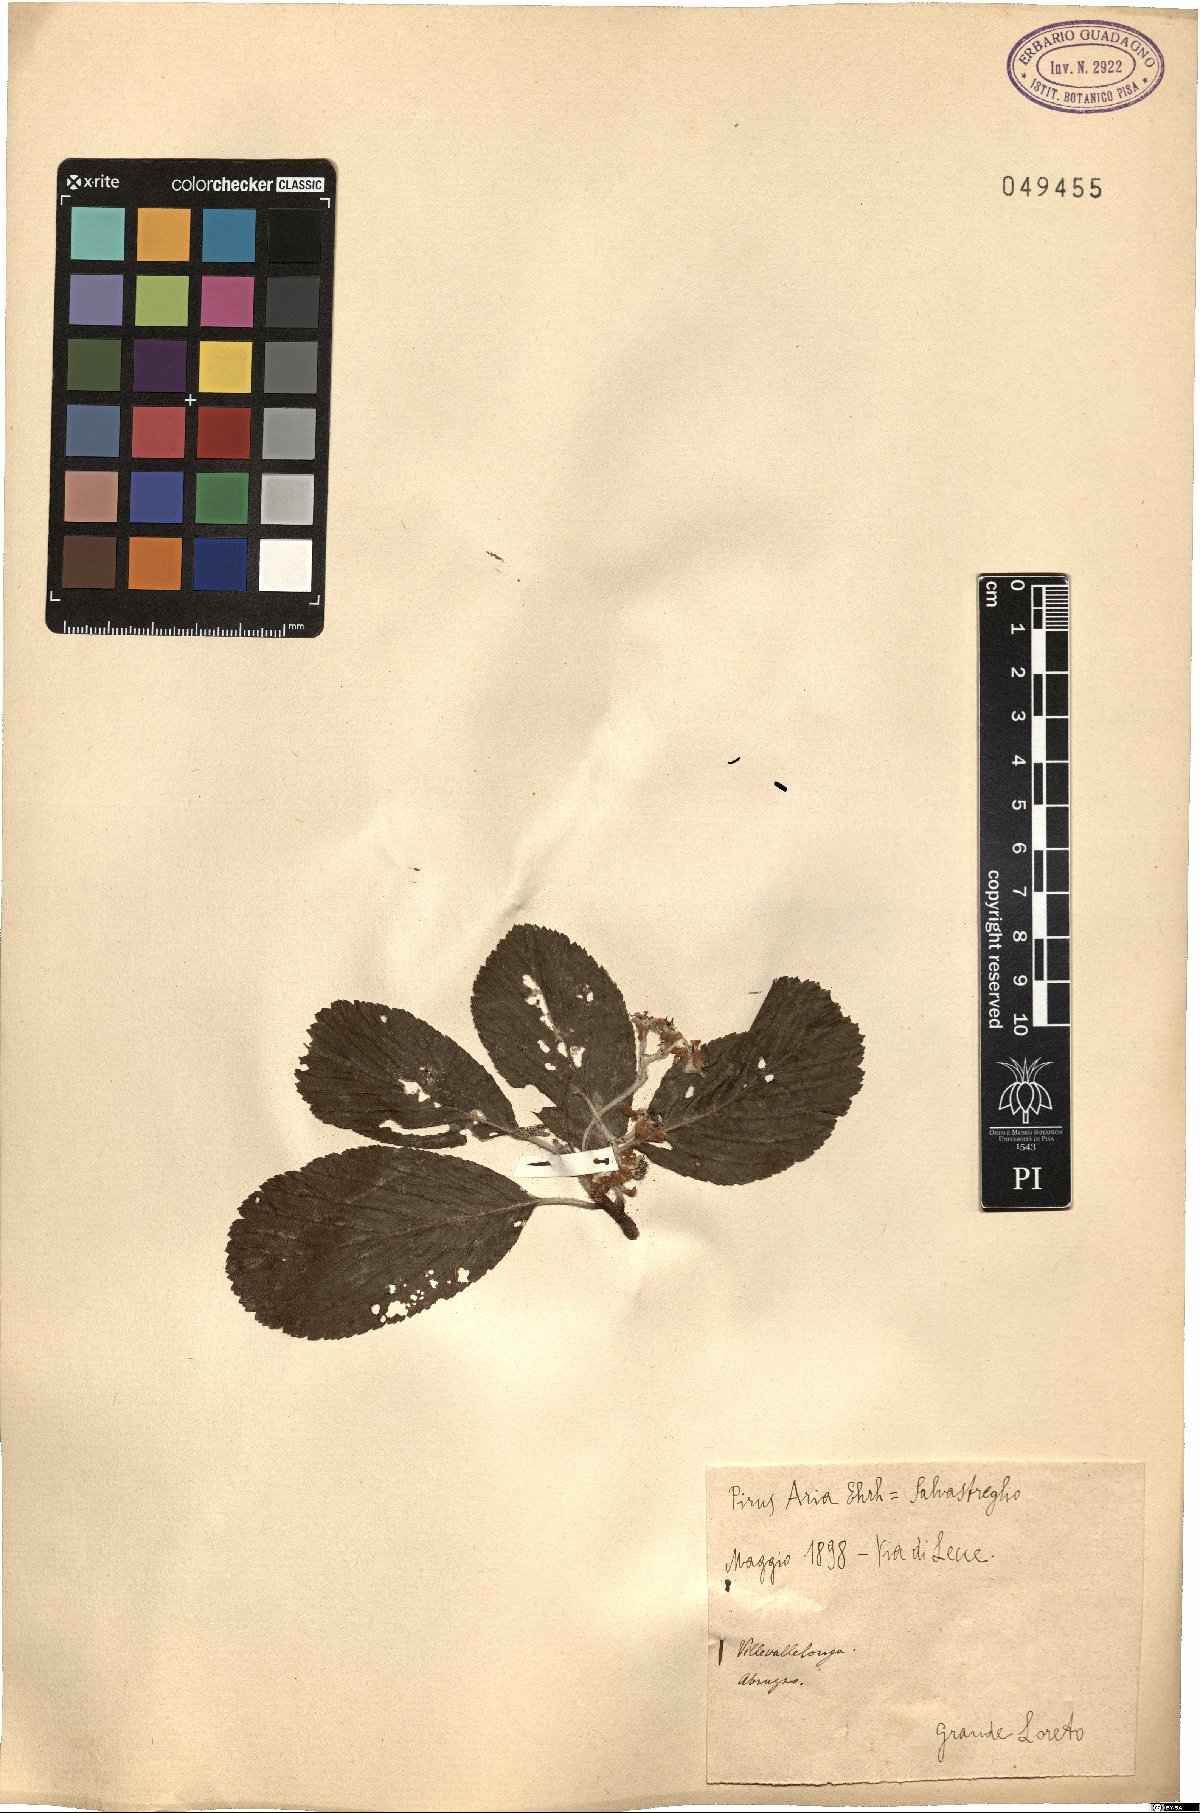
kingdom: Plantae
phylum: Tracheophyta
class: Magnoliopsida
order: Rosales
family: Rosaceae
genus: Aria
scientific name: Aria edulis
